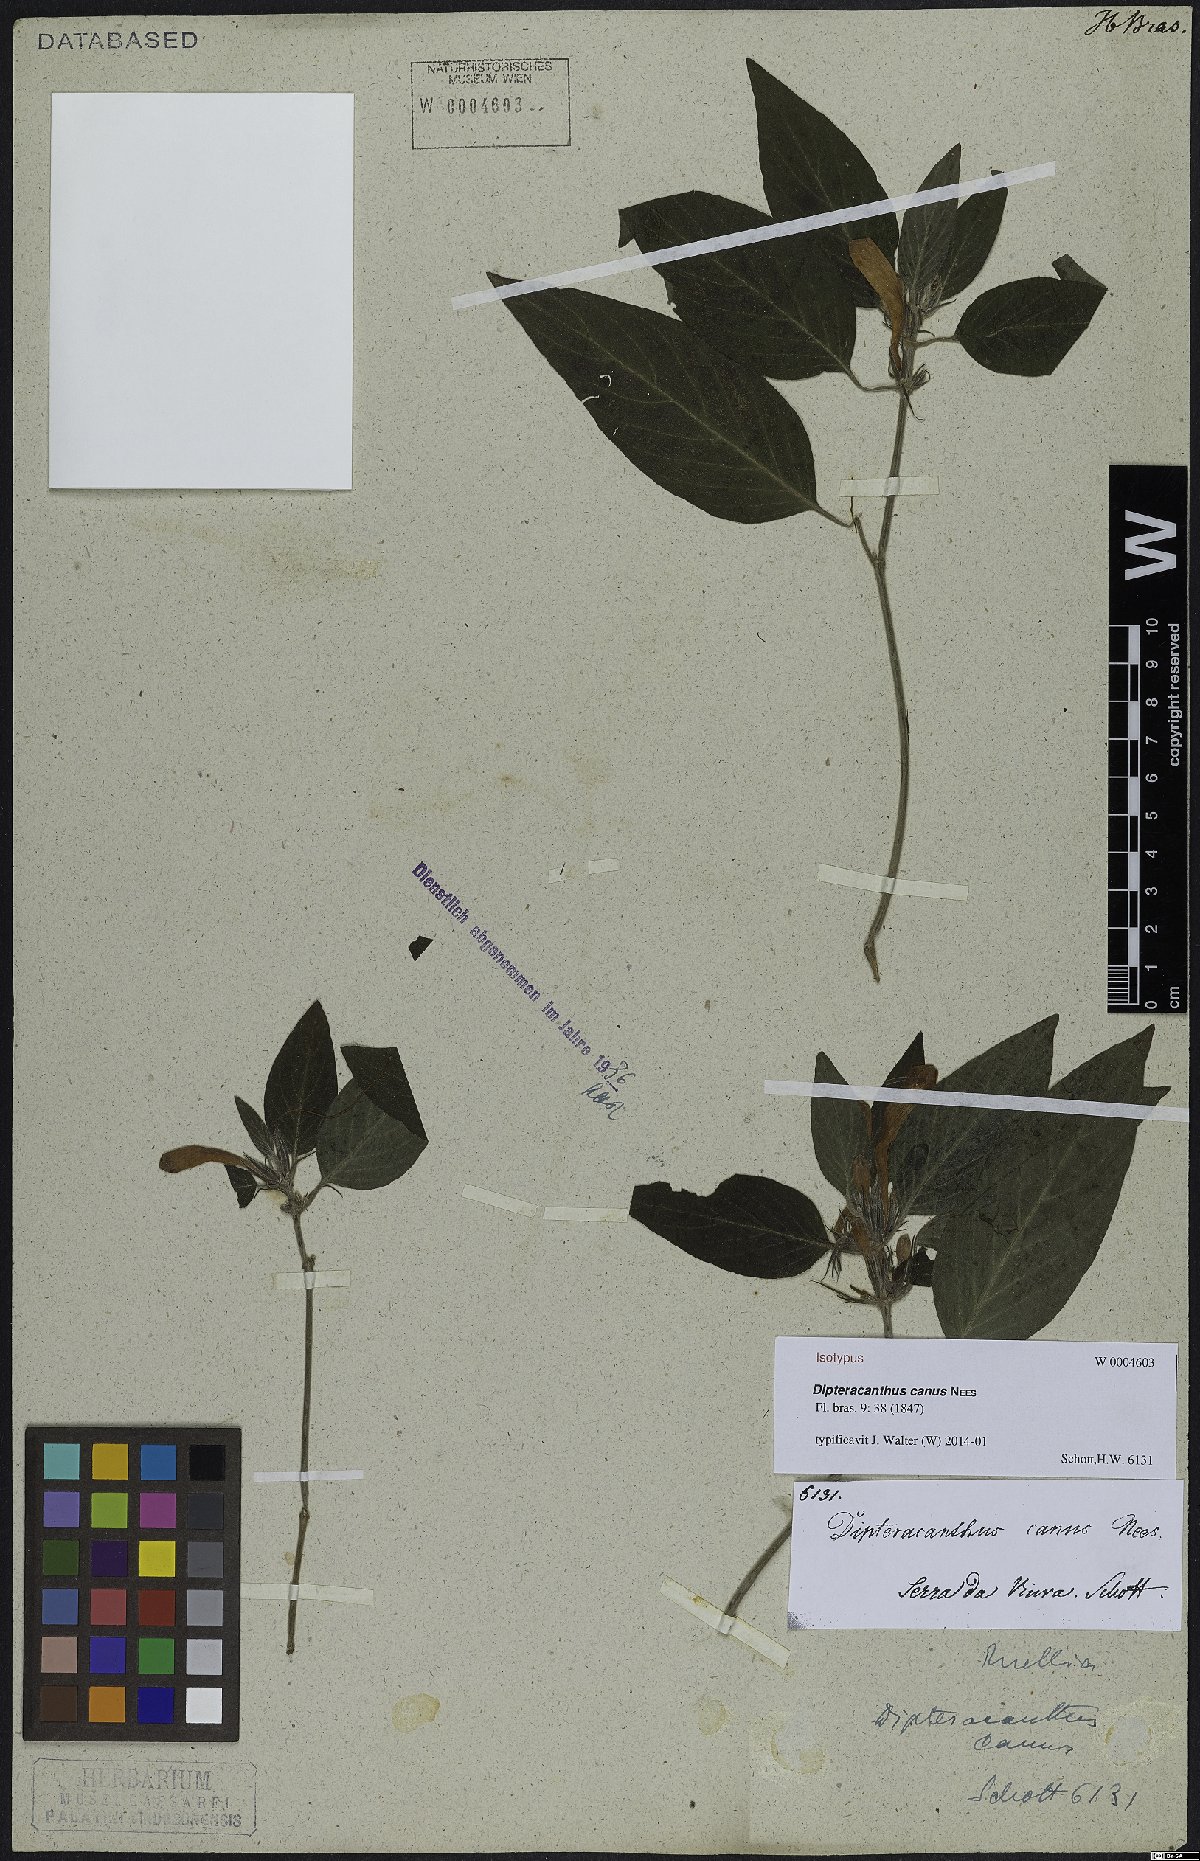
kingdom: Plantae
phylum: Tracheophyta
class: Magnoliopsida
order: Lamiales
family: Acanthaceae
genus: Ruellia
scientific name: Ruellia Dipteracanthus canus
